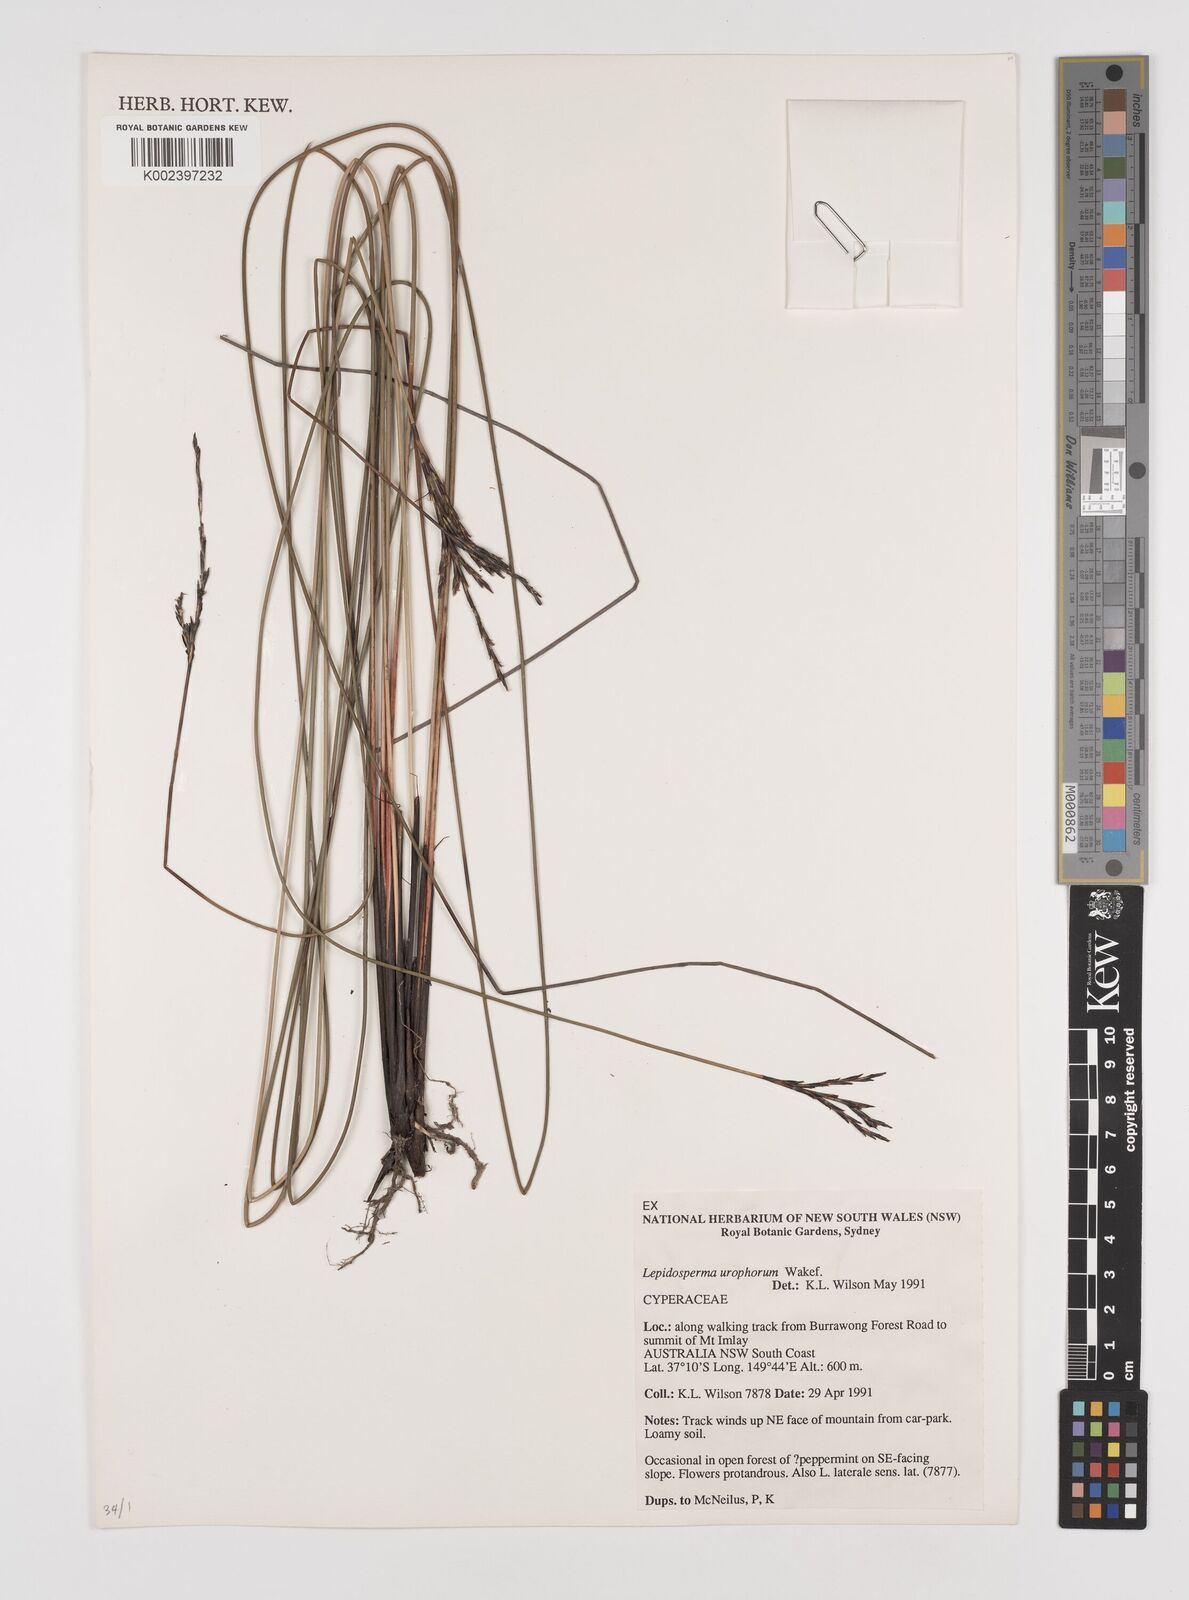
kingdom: Plantae
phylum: Tracheophyta
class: Liliopsida
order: Poales
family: Cyperaceae
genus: Lepidosperma
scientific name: Lepidosperma urophorum
